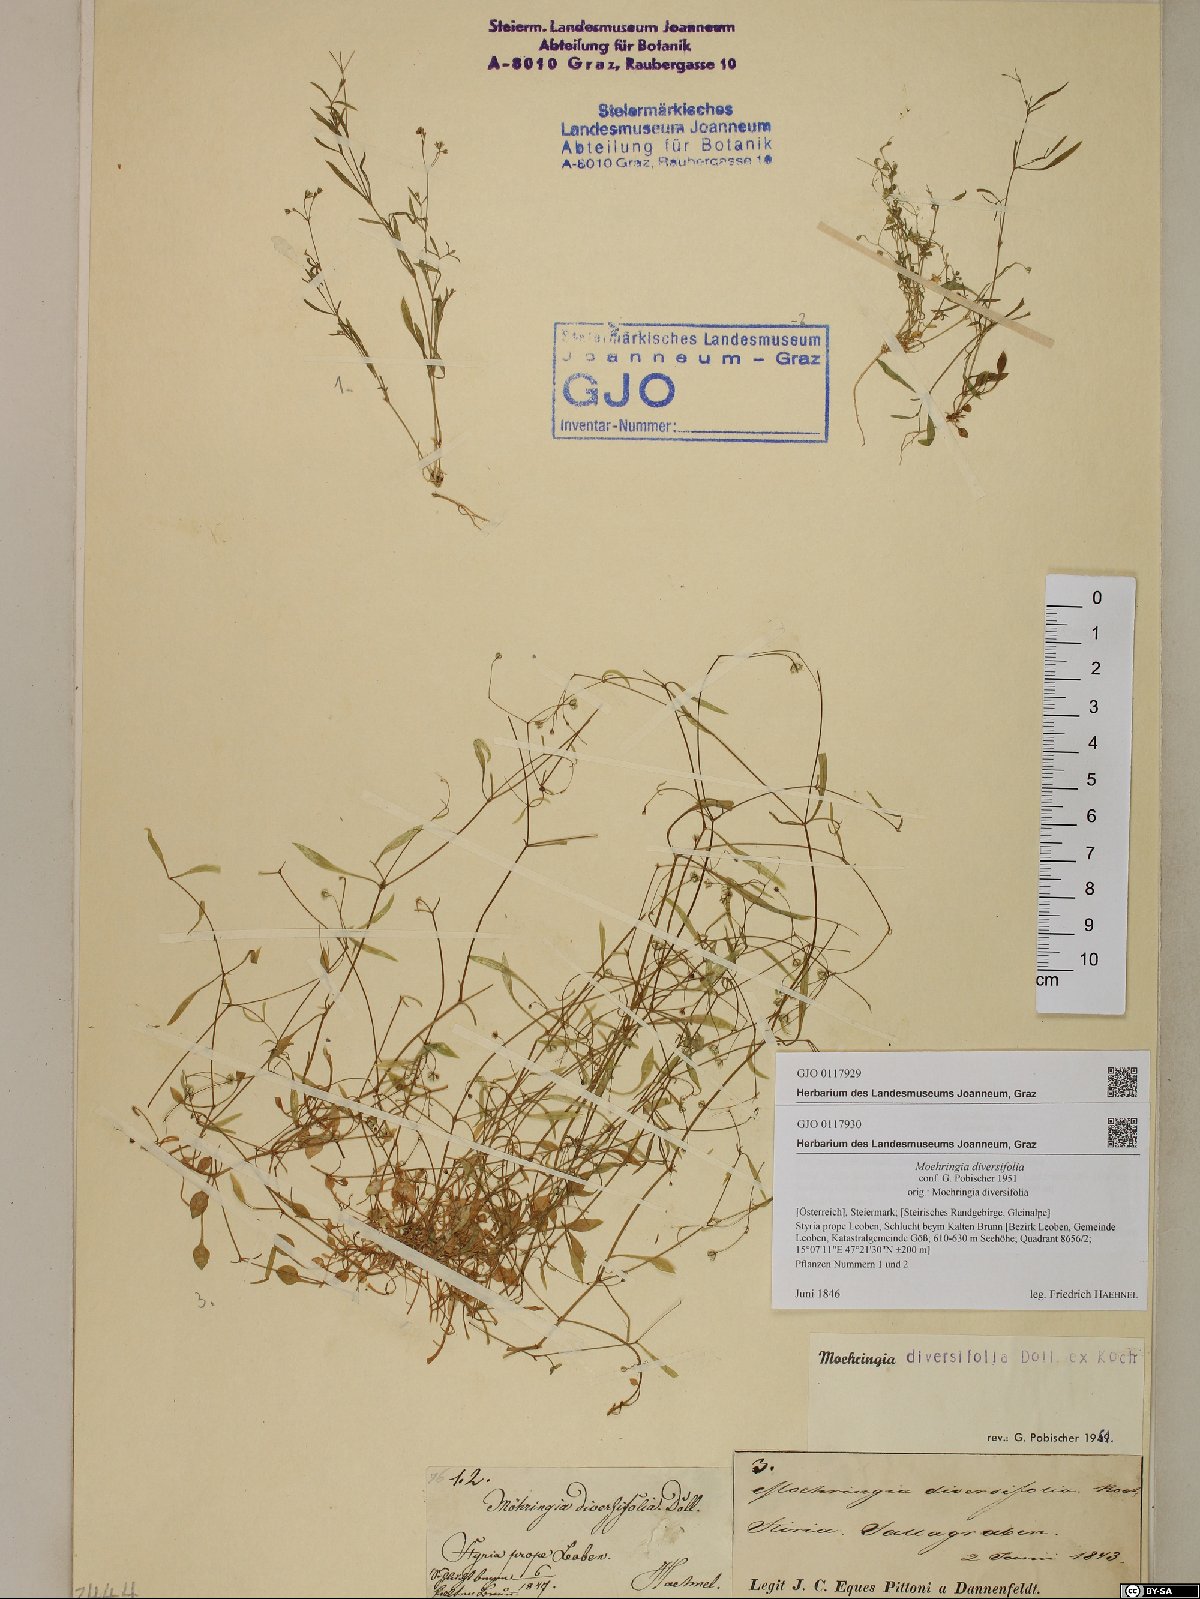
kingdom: Plantae
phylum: Tracheophyta
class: Magnoliopsida
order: Caryophyllales
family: Caryophyllaceae
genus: Moehringia
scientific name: Moehringia diversifolia
